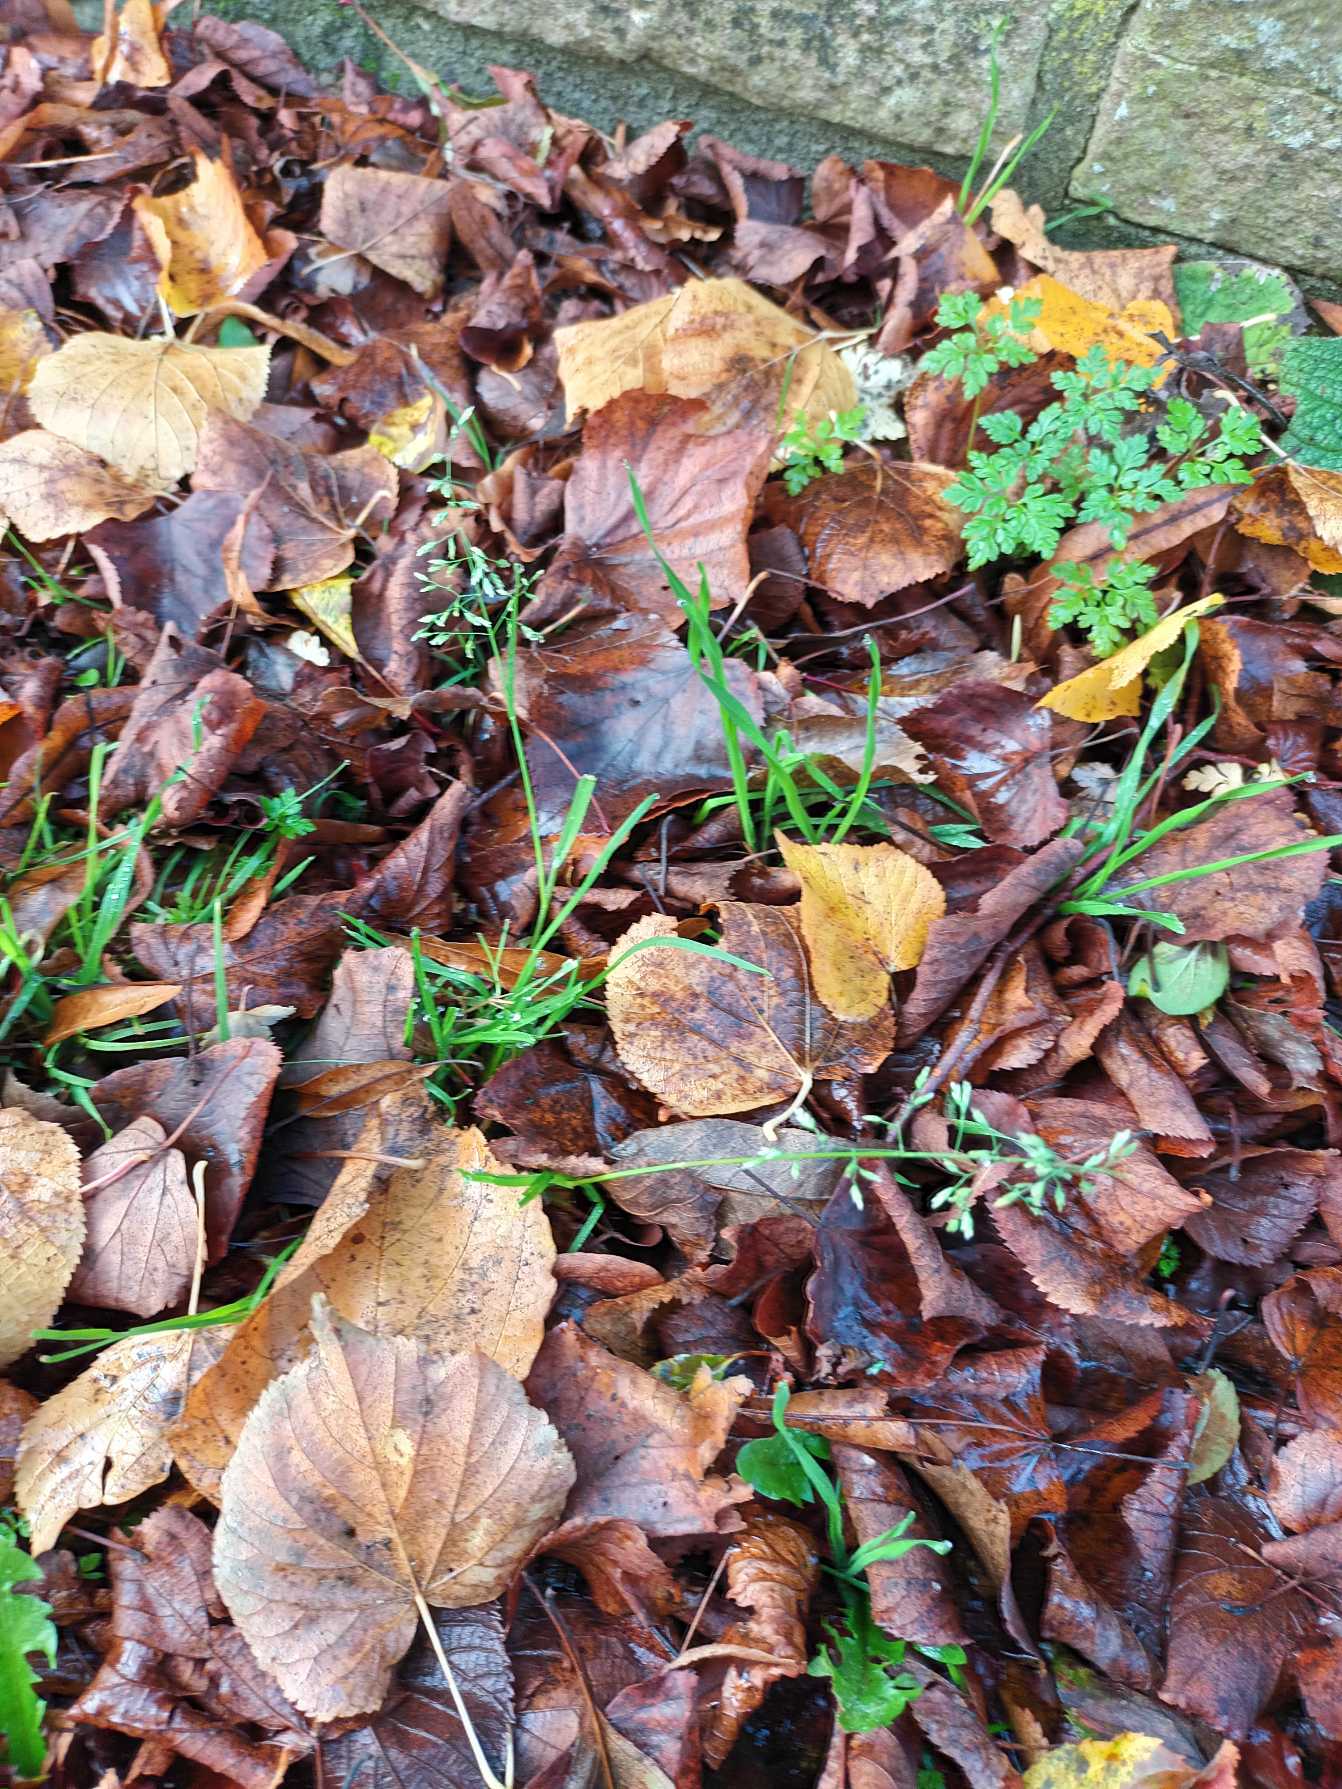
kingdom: Plantae
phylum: Tracheophyta
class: Liliopsida
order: Poales
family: Poaceae
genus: Poa
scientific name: Poa annua
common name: Enårig rapgræs
